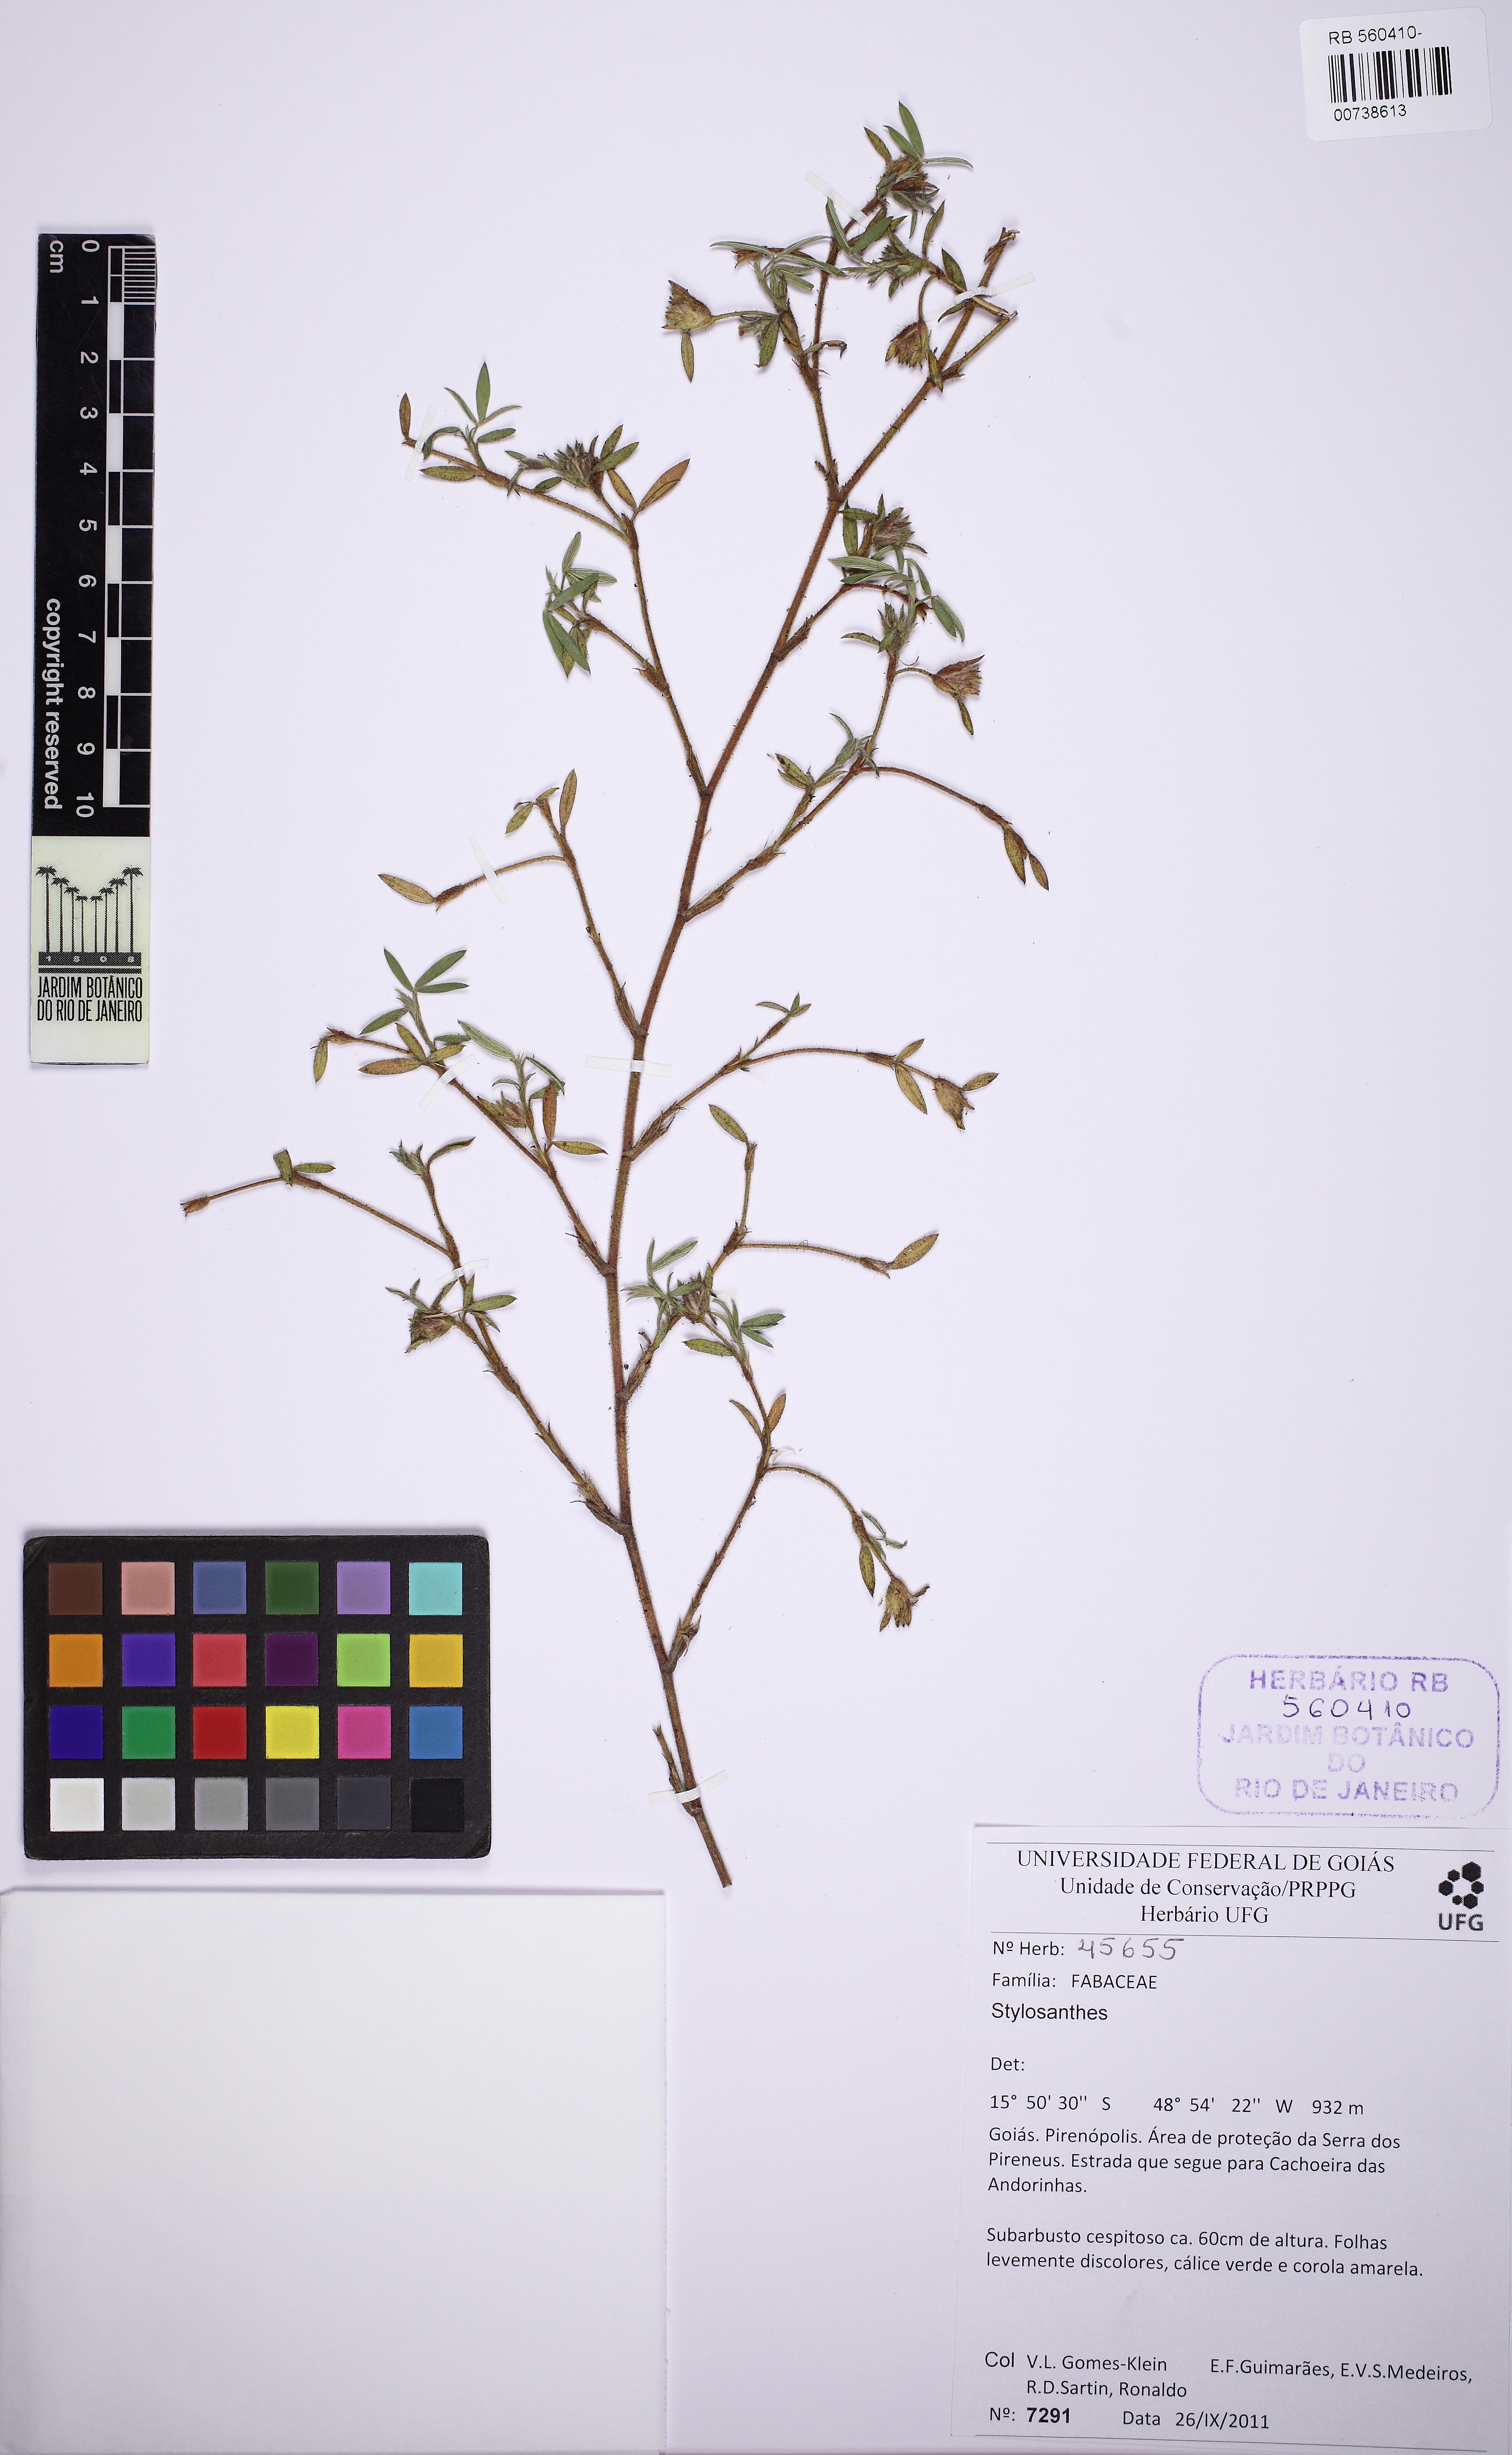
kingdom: Plantae
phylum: Tracheophyta
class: Magnoliopsida
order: Fabales
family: Fabaceae
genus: Stylosanthes
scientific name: Stylosanthes
